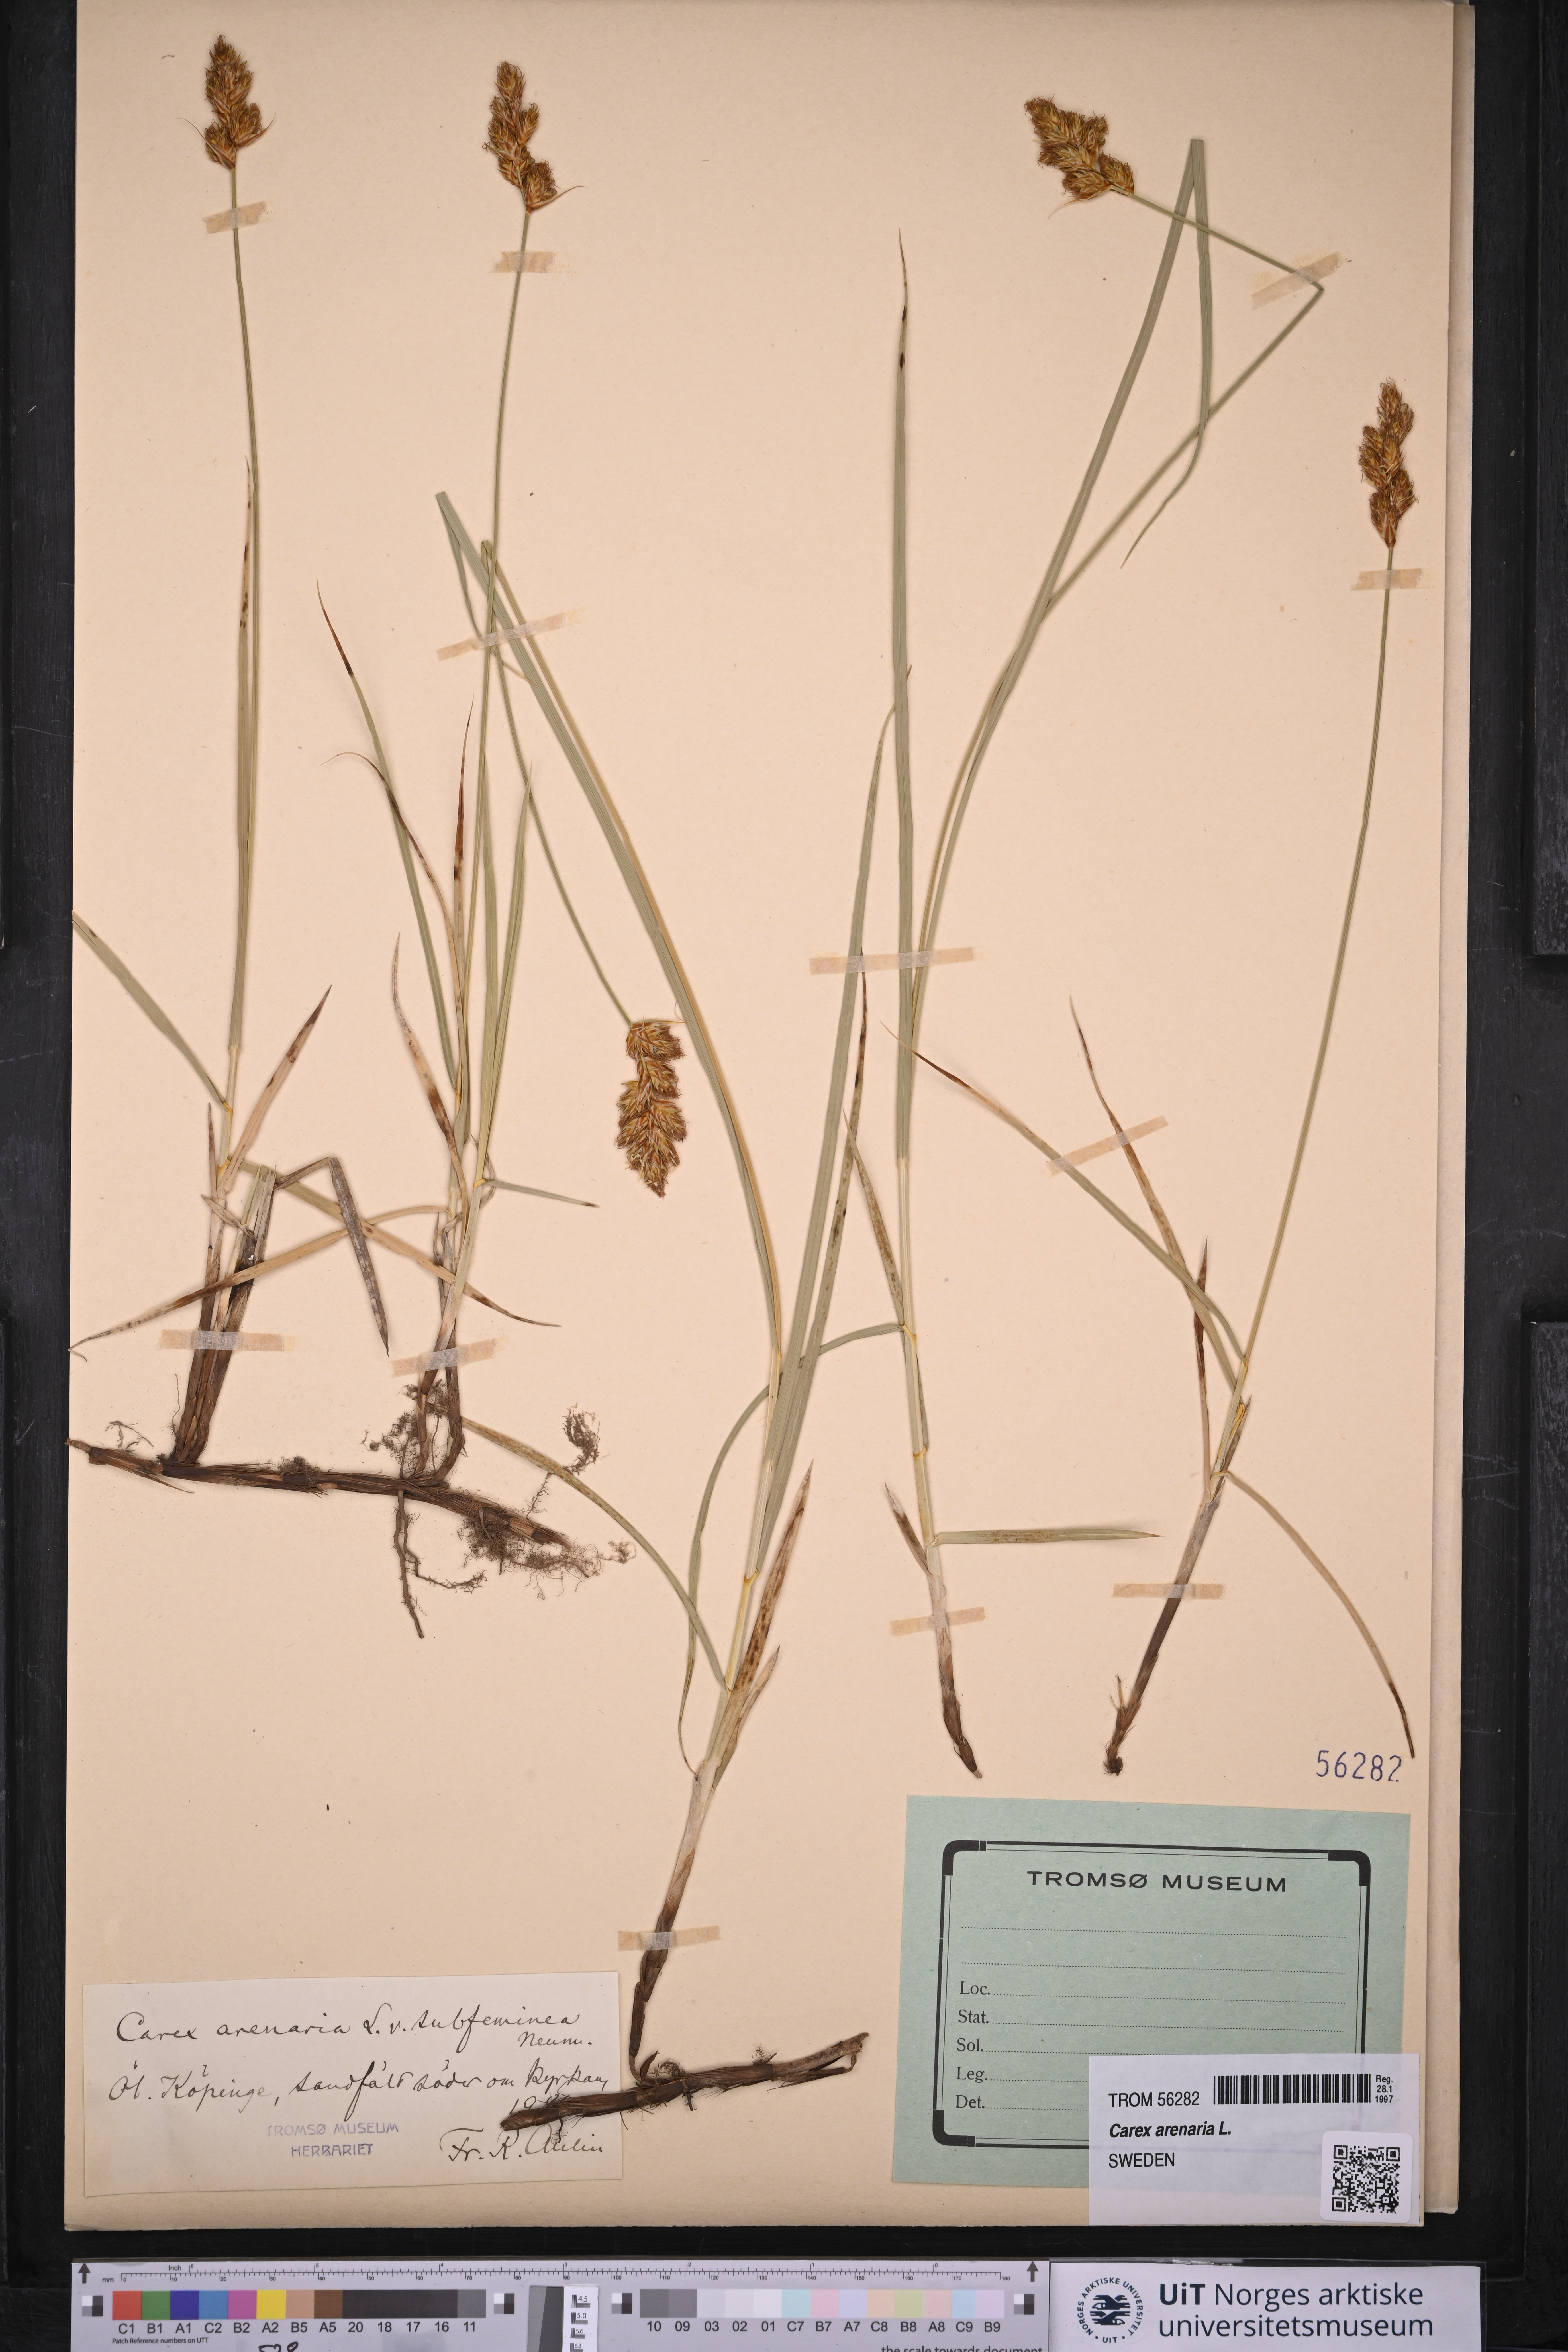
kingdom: Plantae
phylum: Tracheophyta
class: Liliopsida
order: Poales
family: Cyperaceae
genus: Carex
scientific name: Carex arenaria
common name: Sand sedge
